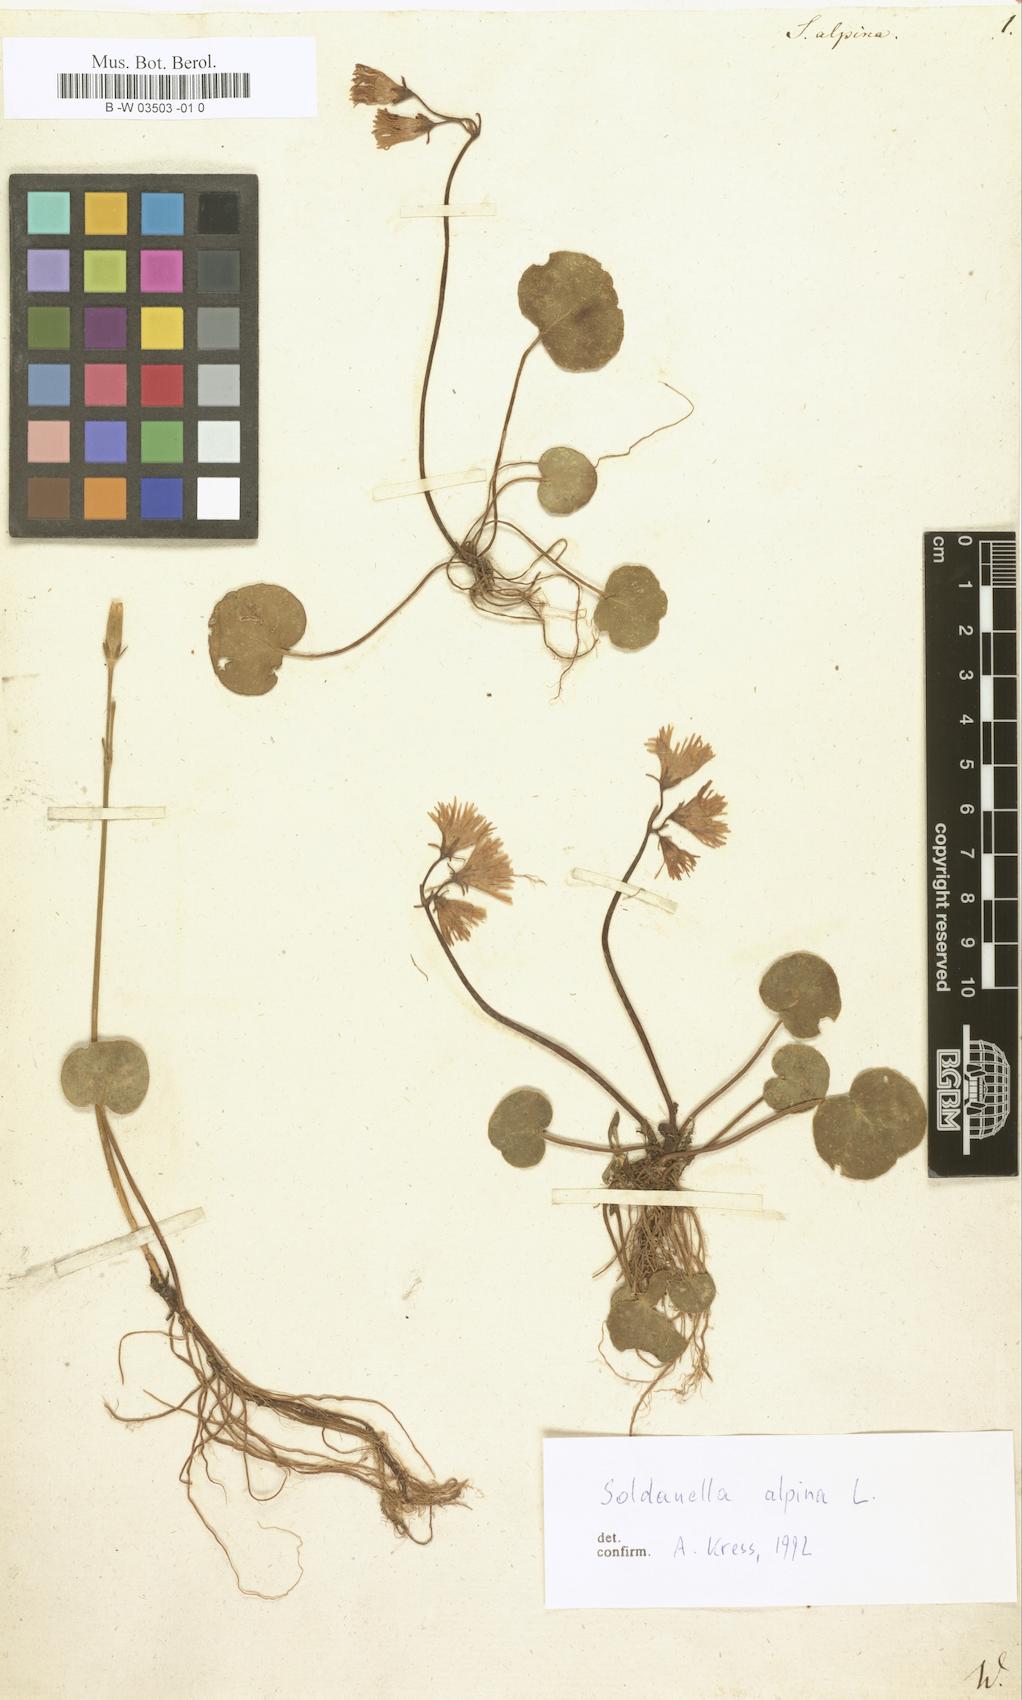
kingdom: Plantae
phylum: Tracheophyta
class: Magnoliopsida
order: Ericales
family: Primulaceae
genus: Soldanella
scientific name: Soldanella alpina
